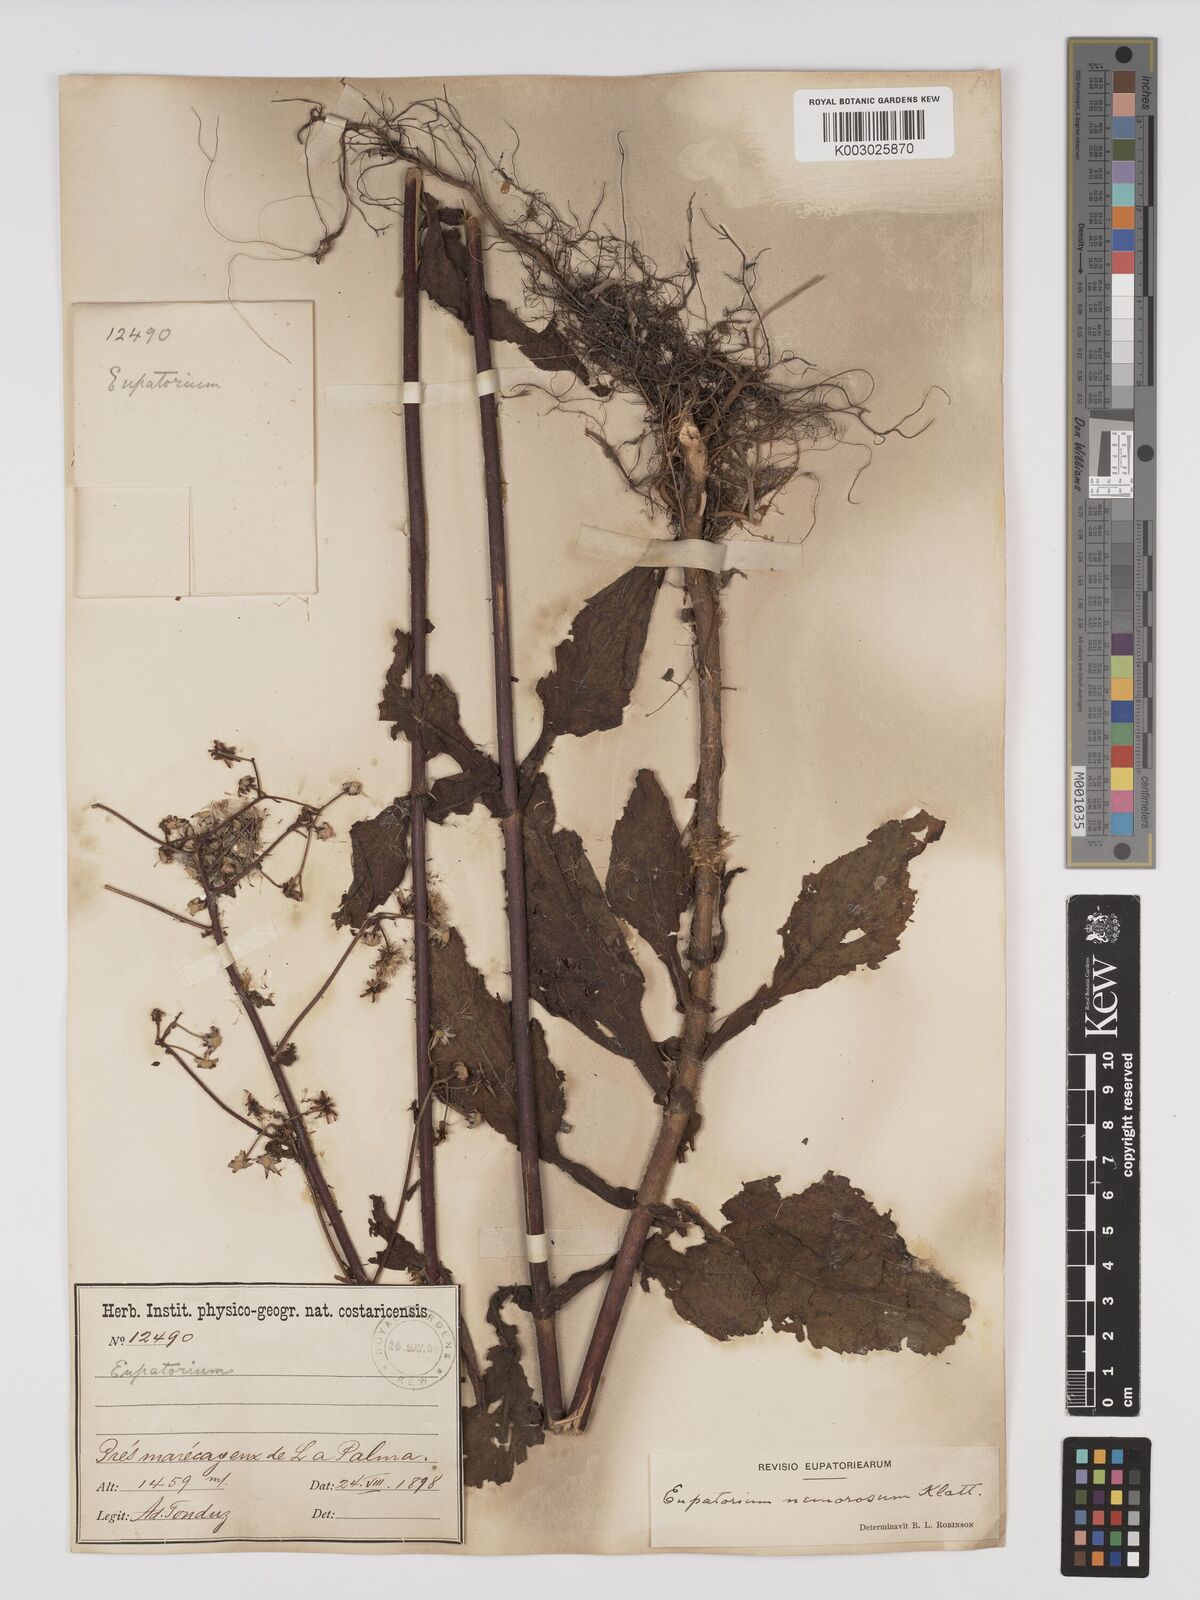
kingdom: Plantae
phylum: Tracheophyta
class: Magnoliopsida
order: Asterales
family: Asteraceae
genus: Polyanthina
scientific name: Polyanthina nemorosa
